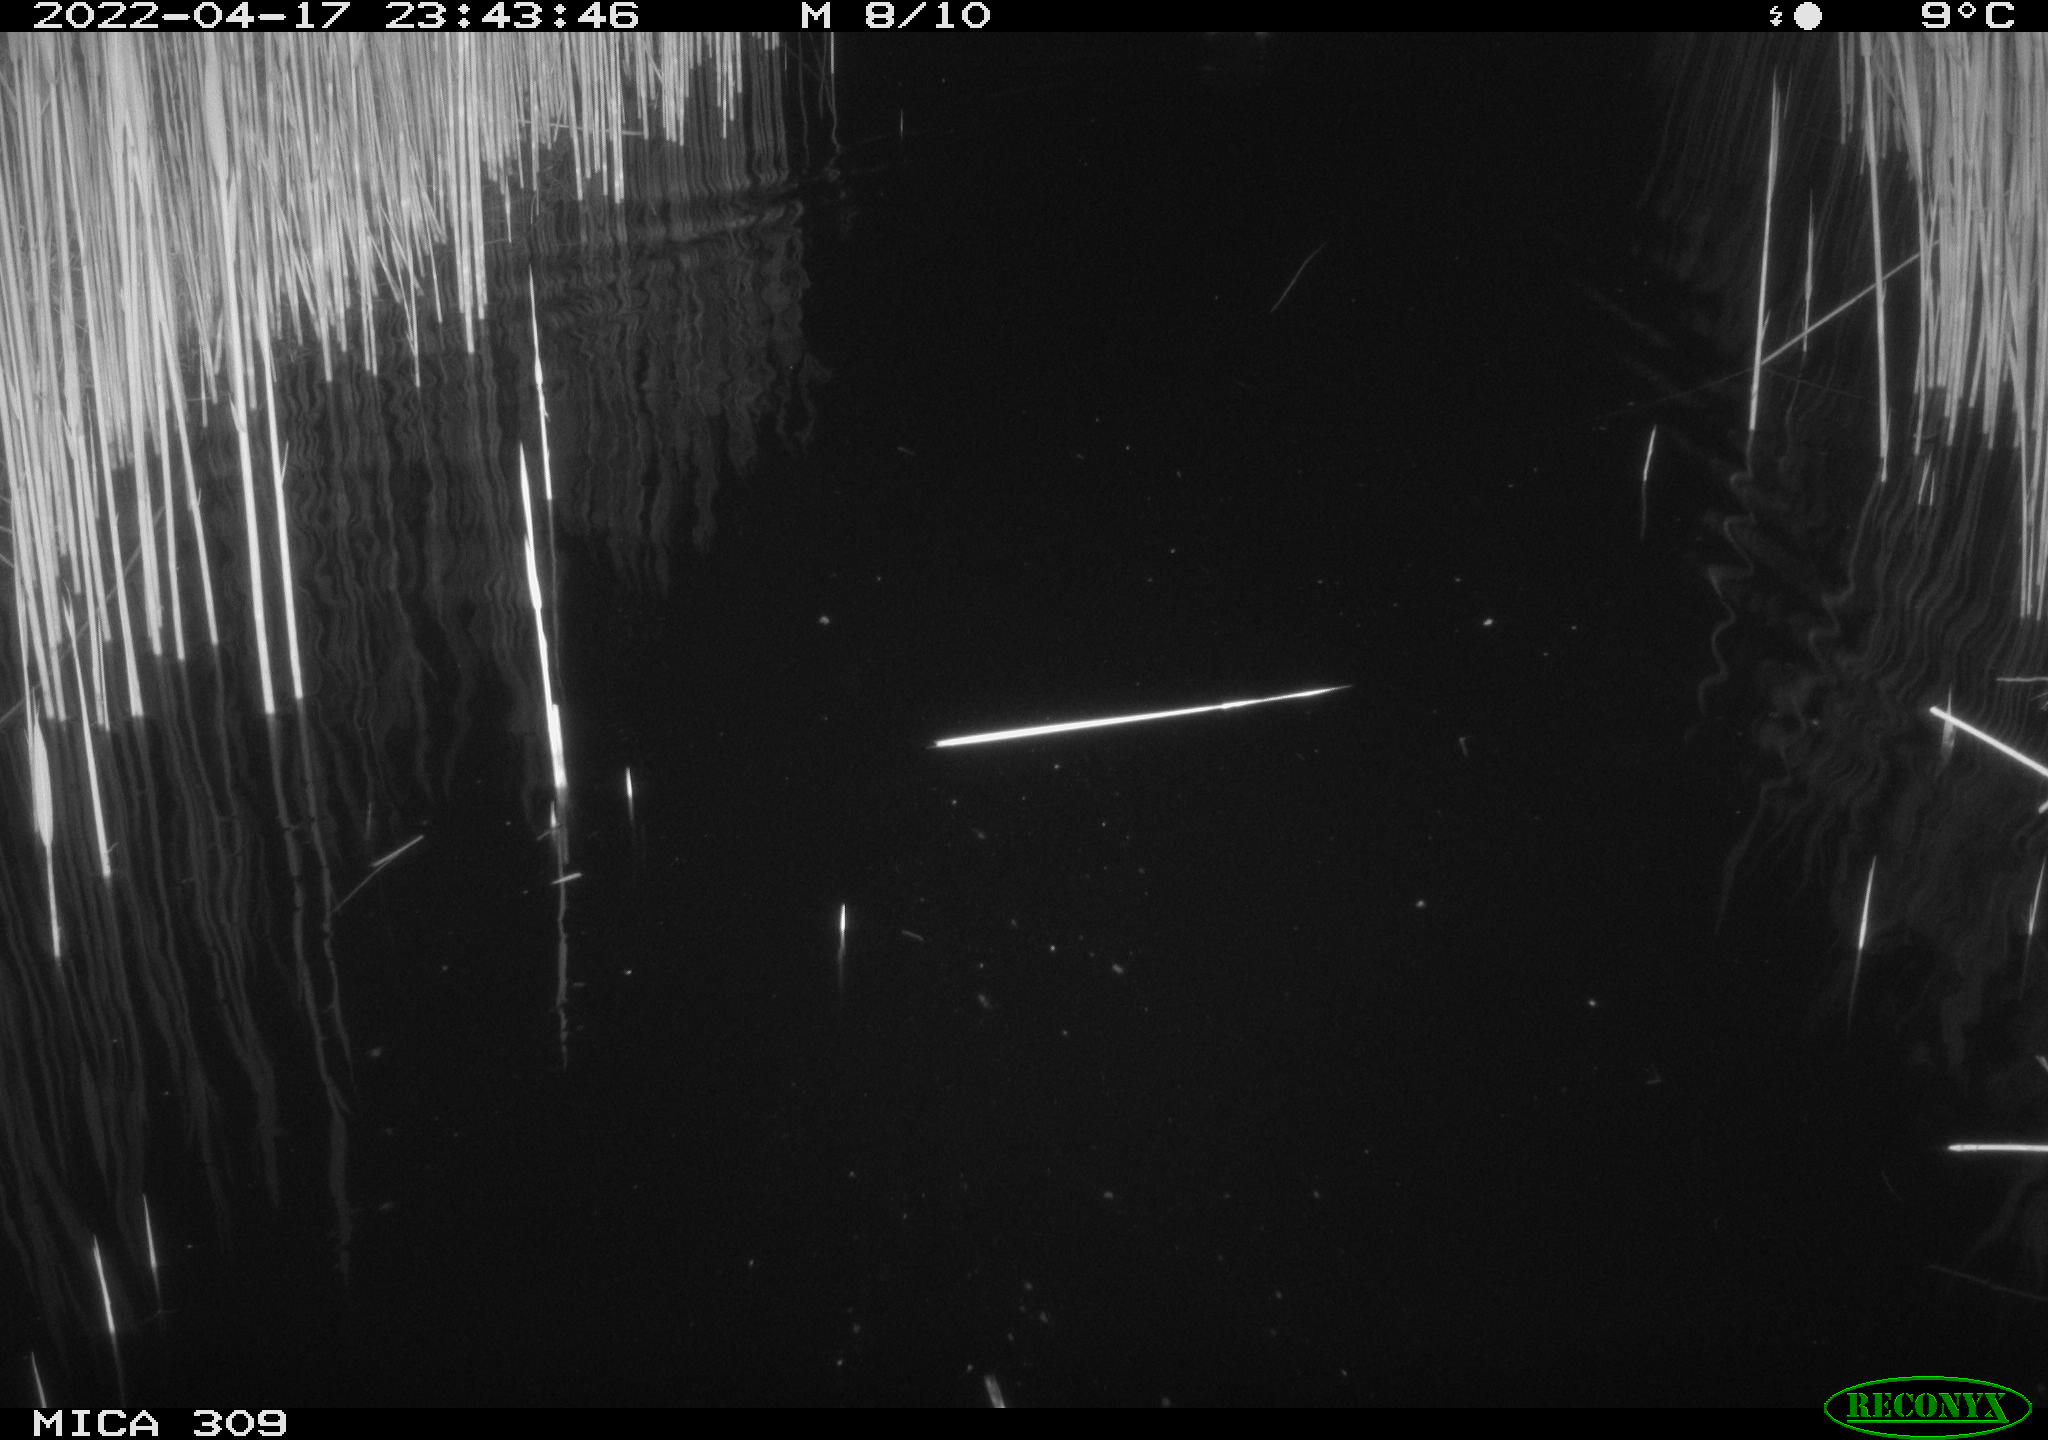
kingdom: Animalia
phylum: Chordata
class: Aves
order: Anseriformes
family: Anatidae
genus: Anas
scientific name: Anas platyrhynchos
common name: Mallard
